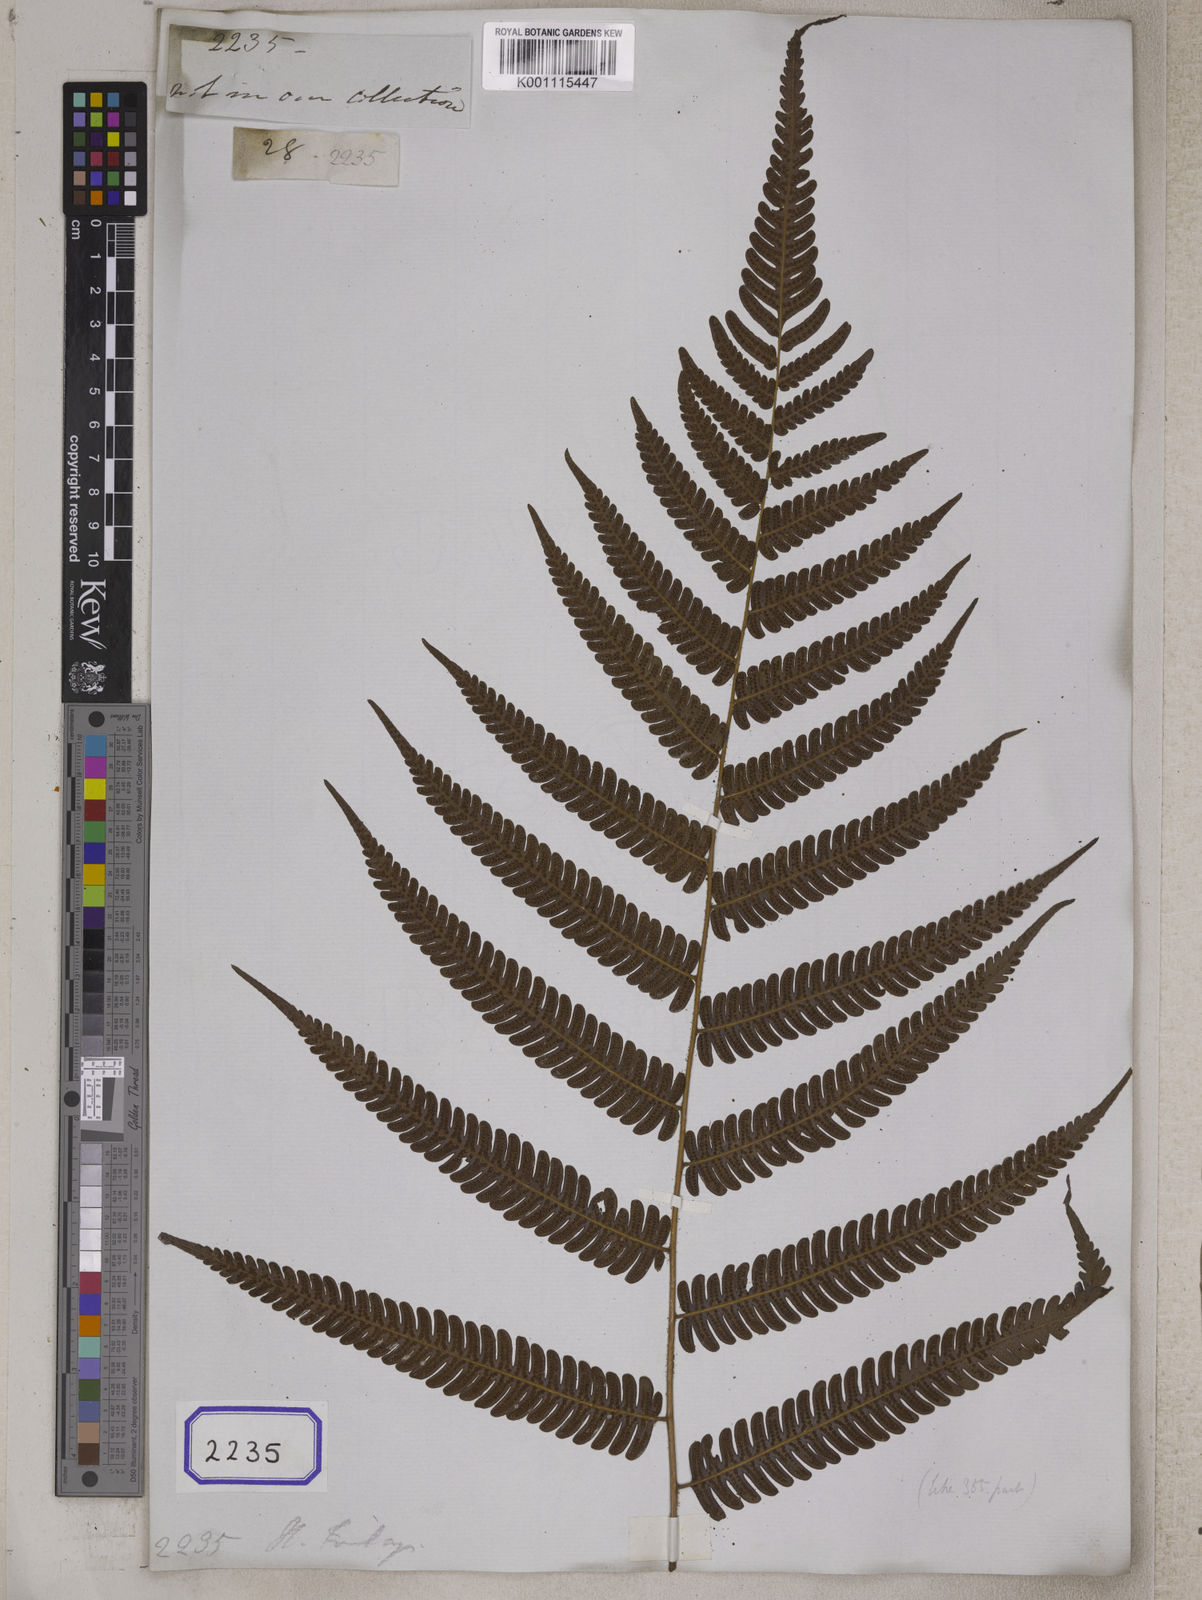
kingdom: Plantae
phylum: Tracheophyta
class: Polypodiopsida
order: Polypodiales
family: Tectariaceae
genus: Tectaria
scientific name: Tectaria Aspidium finlaysonianum
